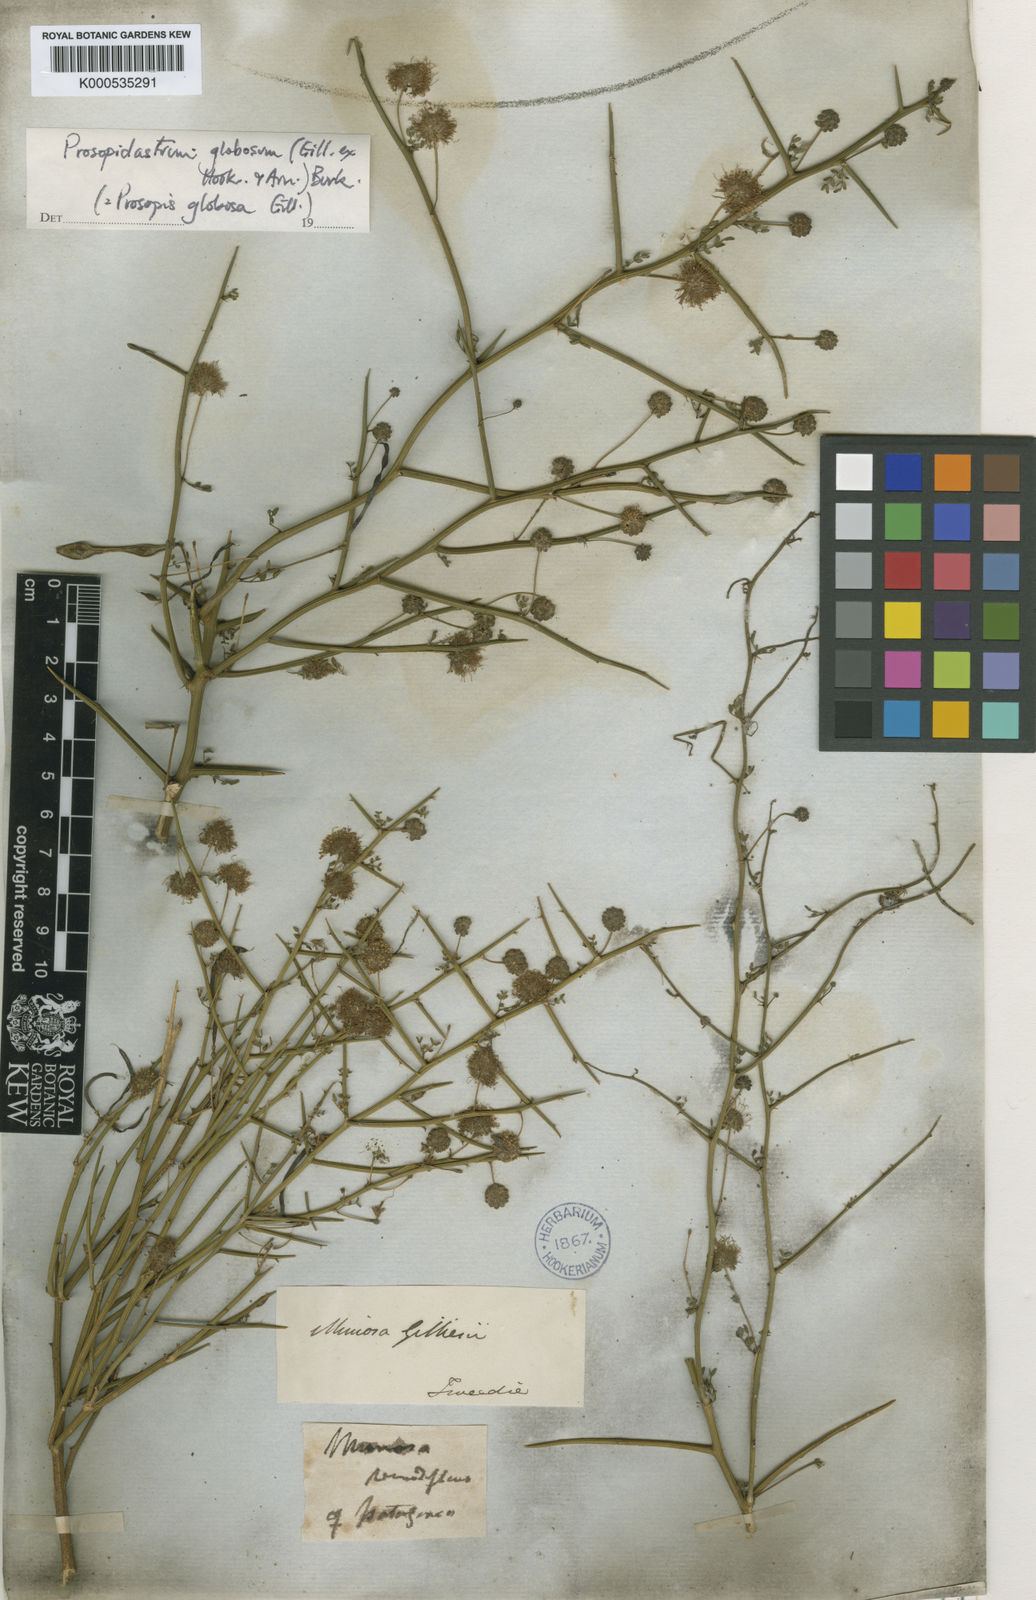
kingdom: Plantae
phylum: Tracheophyta
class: Magnoliopsida
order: Fabales
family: Fabaceae
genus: Prosopidastrum
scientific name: Prosopidastrum globosum
